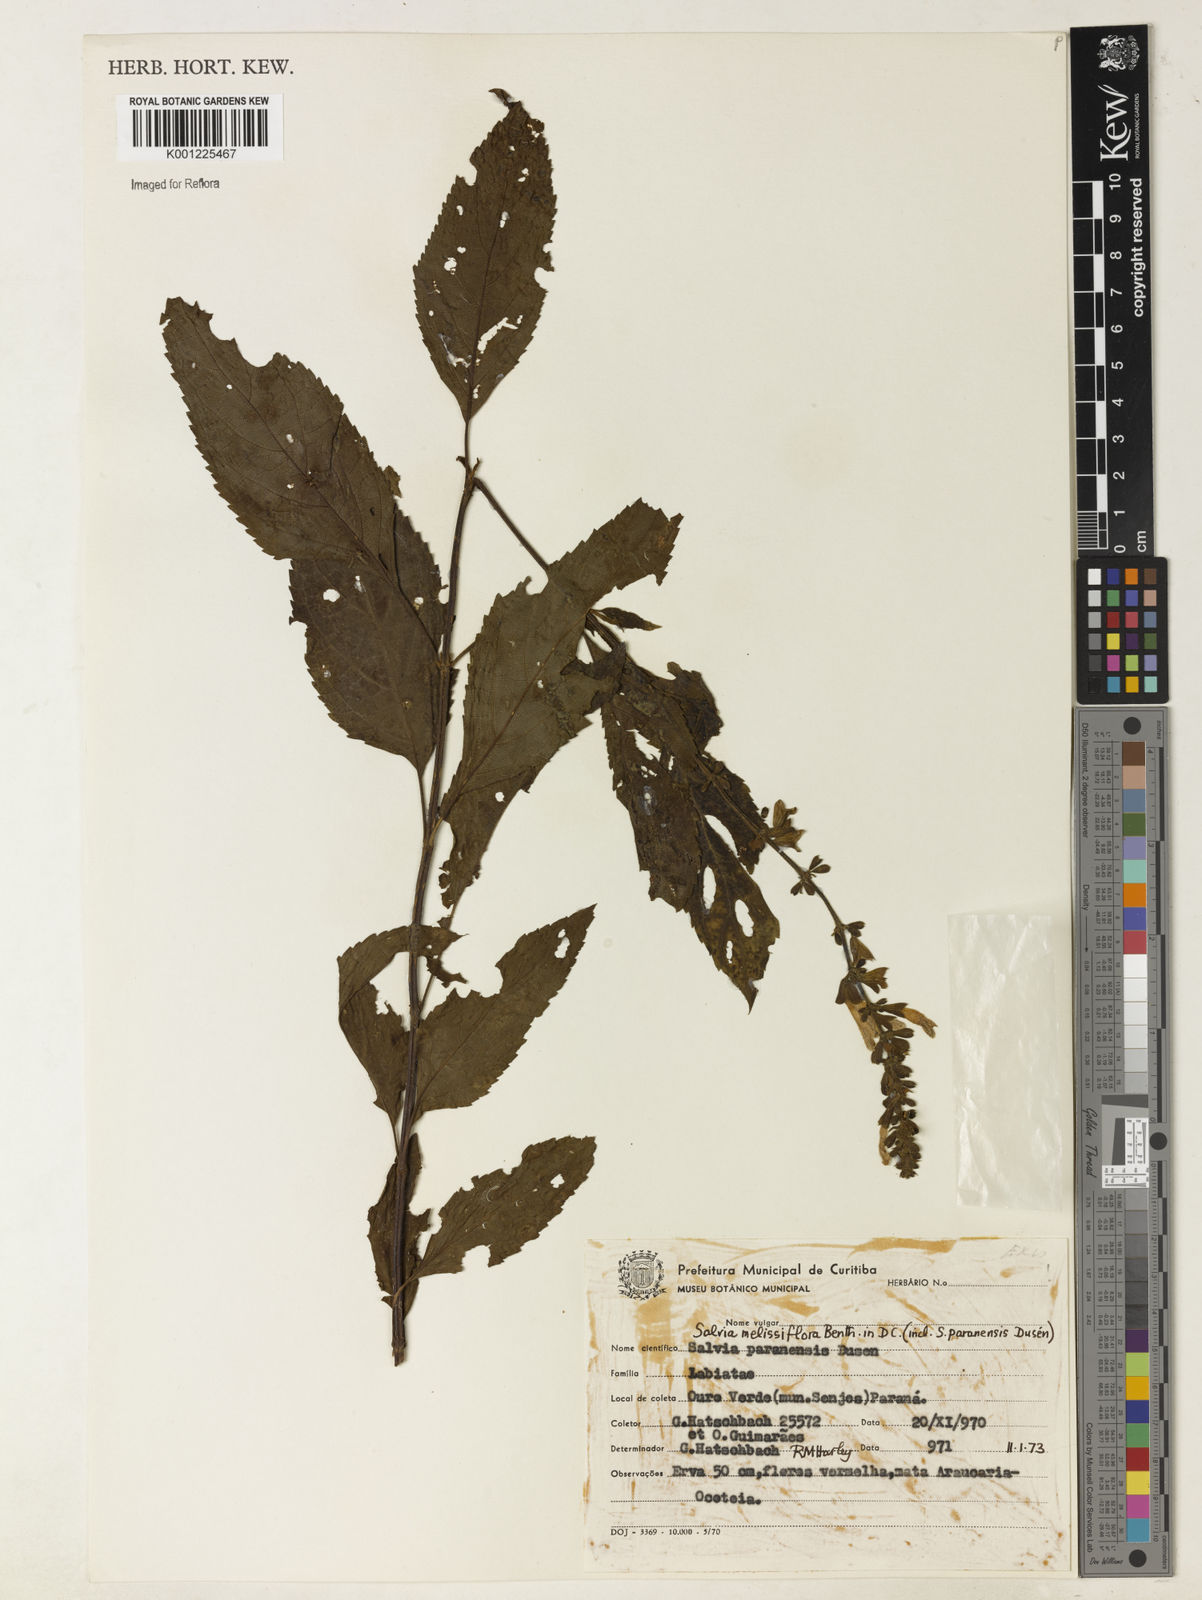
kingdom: Plantae
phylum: Tracheophyta
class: Magnoliopsida
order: Lamiales
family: Lamiaceae
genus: Salvia
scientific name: Salvia melissiflora
